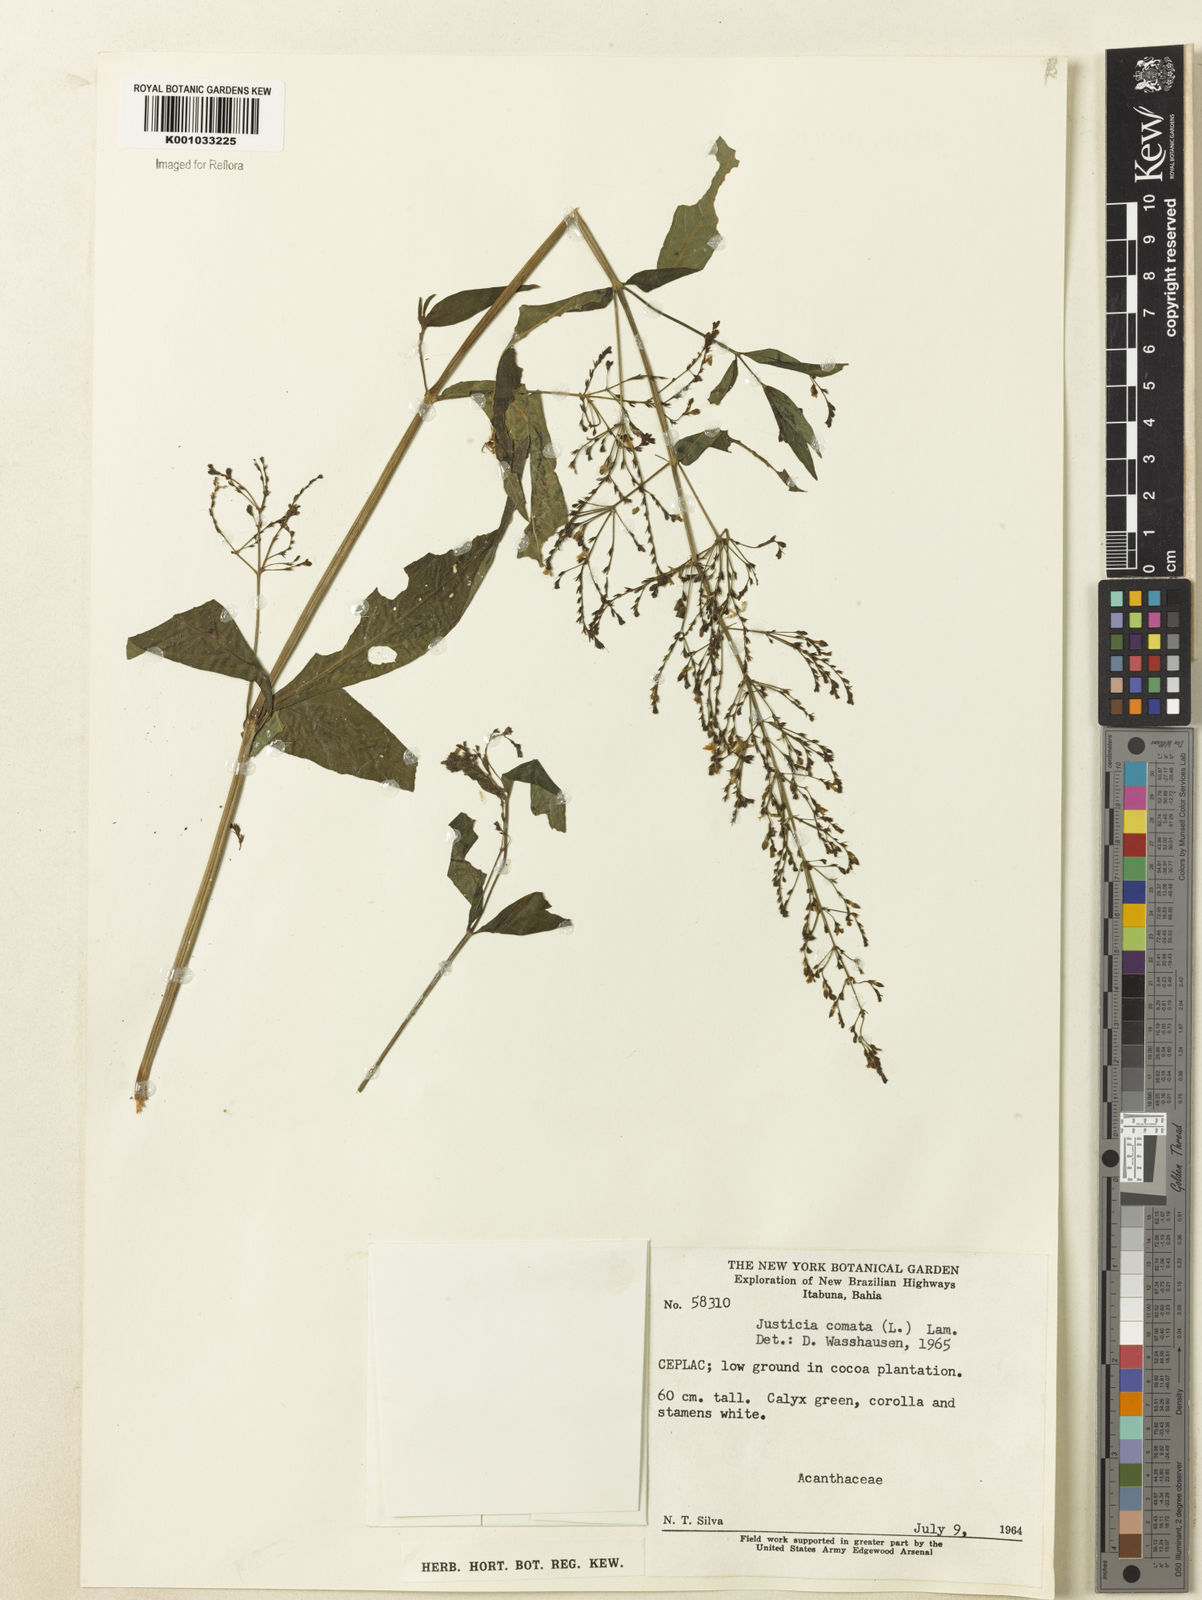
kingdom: Plantae
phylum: Tracheophyta
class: Magnoliopsida
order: Lamiales
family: Acanthaceae
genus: Dianthera
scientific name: Dianthera comata
